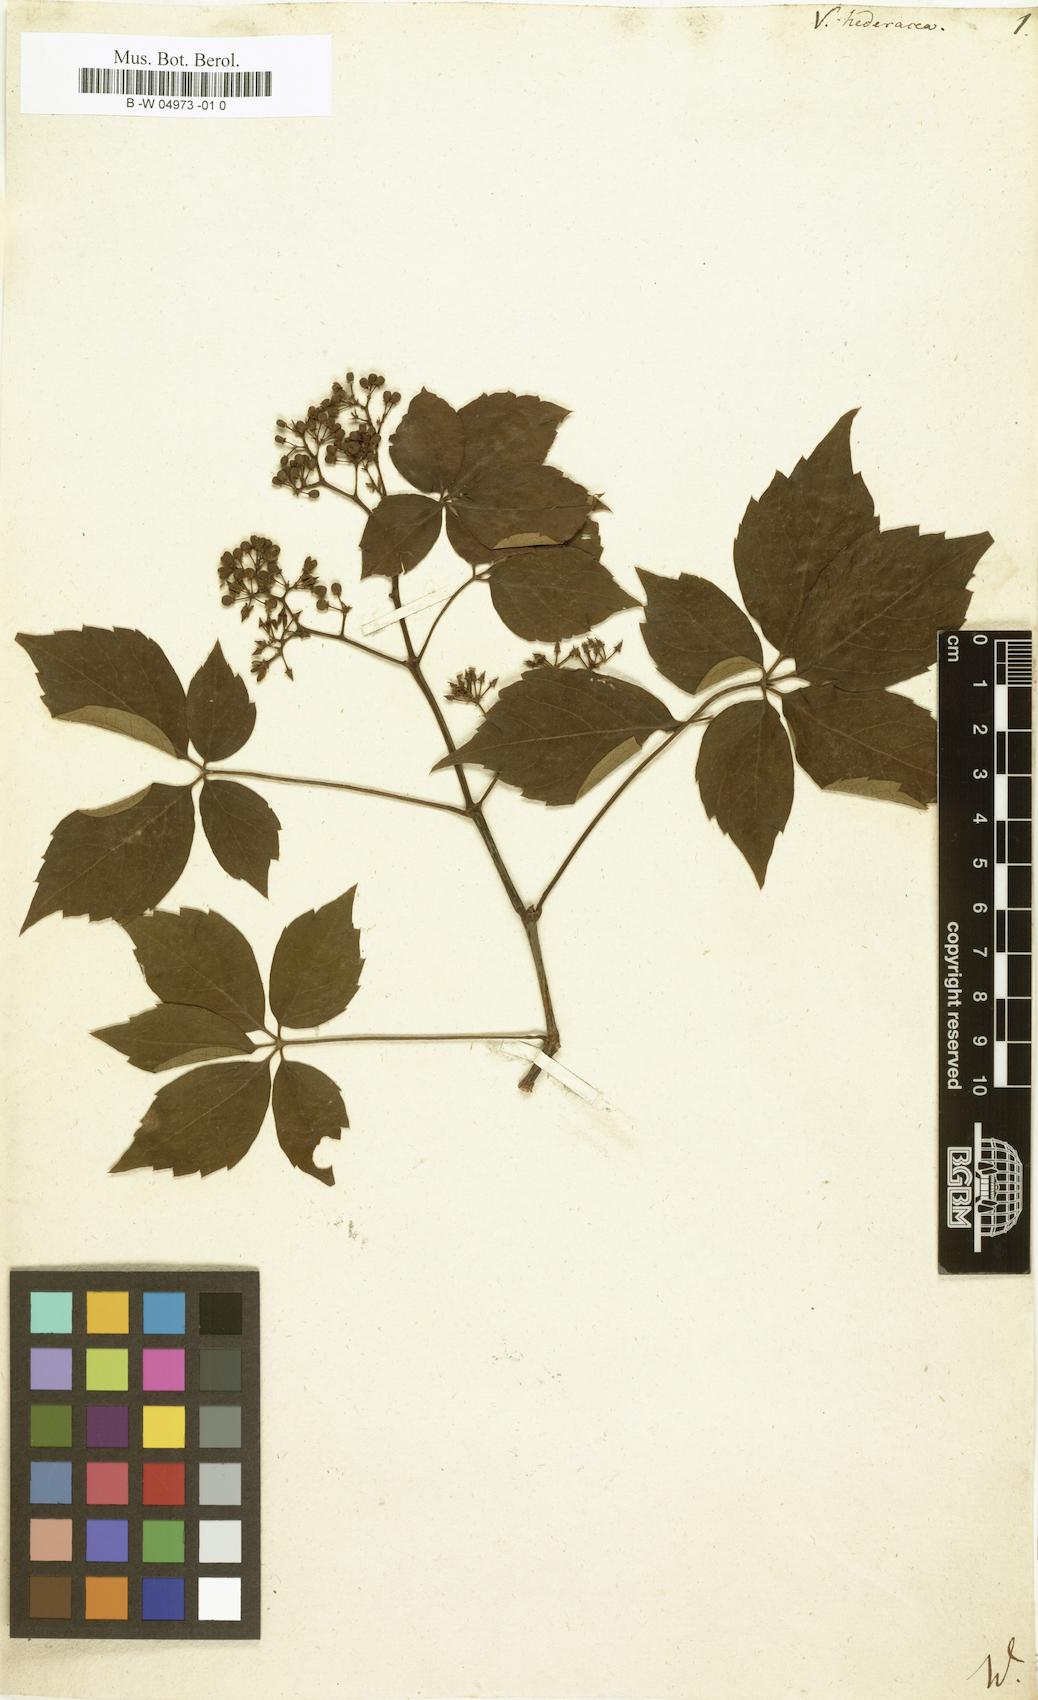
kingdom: Plantae
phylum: Tracheophyta
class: Magnoliopsida
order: Vitales
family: Vitaceae
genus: Parthenocissus
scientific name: Parthenocissus quinquefolia
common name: Virginia-creeper
